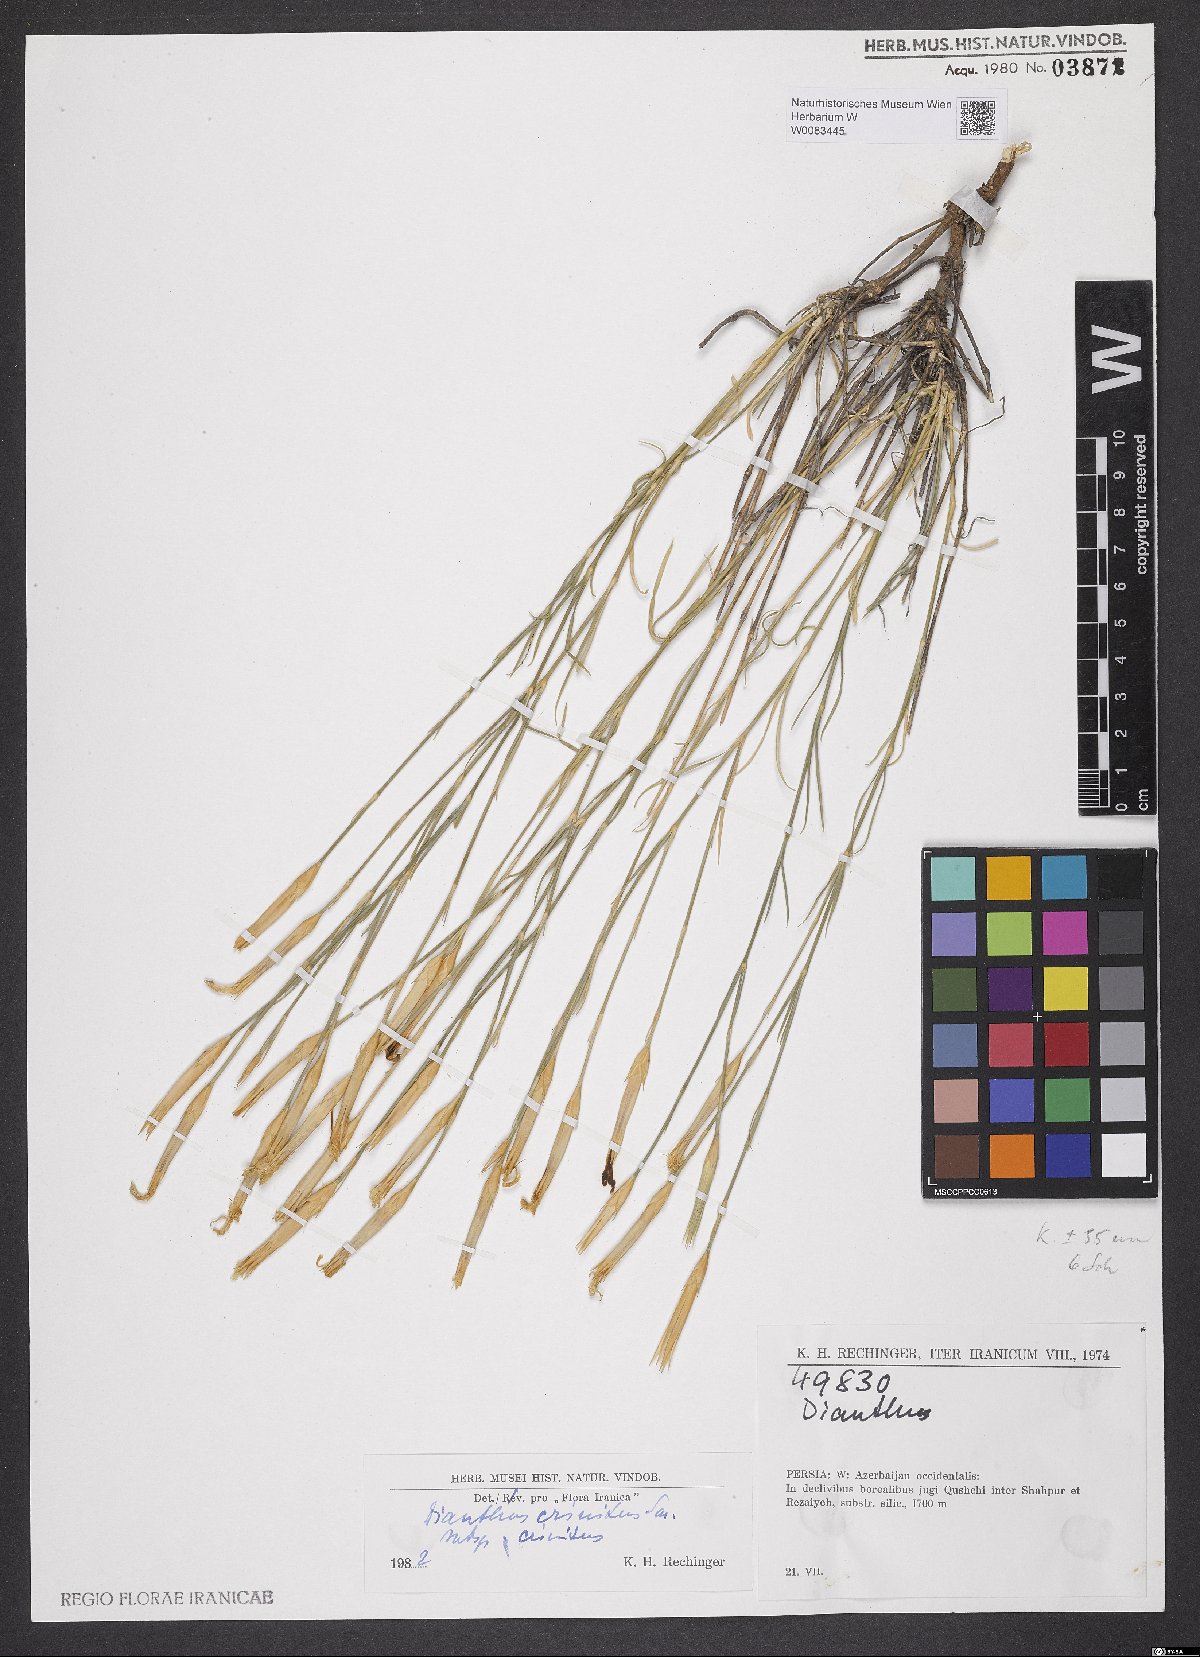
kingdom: Plantae
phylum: Tracheophyta
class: Magnoliopsida
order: Caryophyllales
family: Caryophyllaceae
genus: Dianthus
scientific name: Dianthus crinitus
